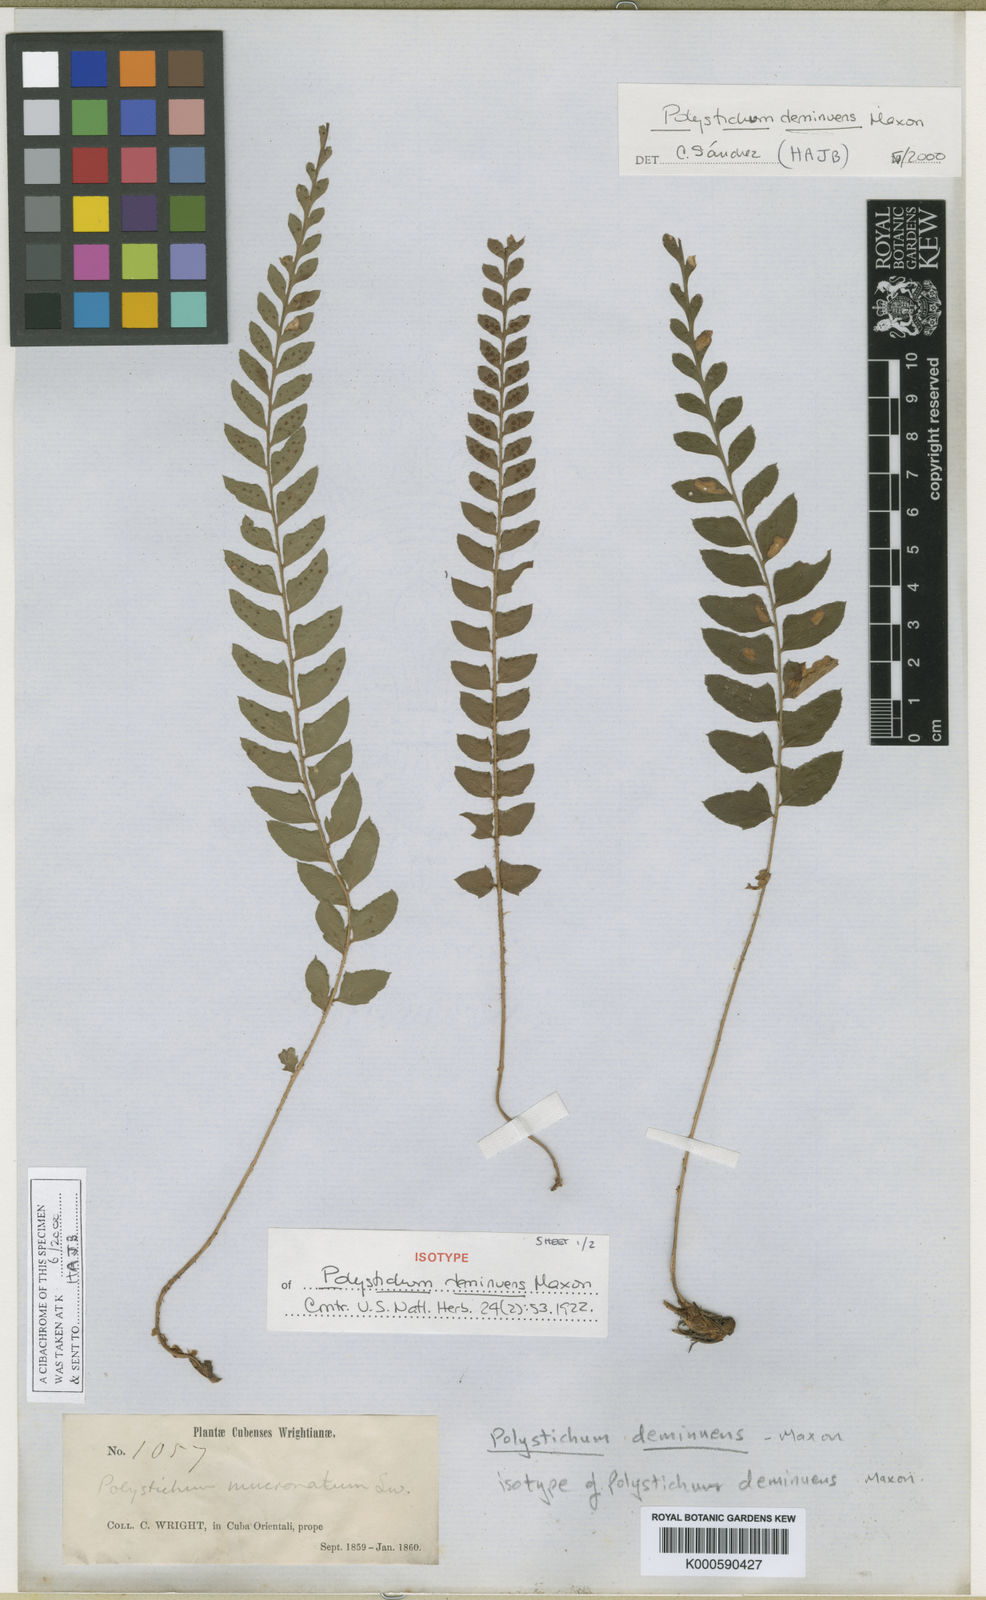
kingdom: Plantae
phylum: Tracheophyta
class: Polypodiopsida
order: Polypodiales
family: Dryopteridaceae
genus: Polystichum
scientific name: Polystichum deminuens
